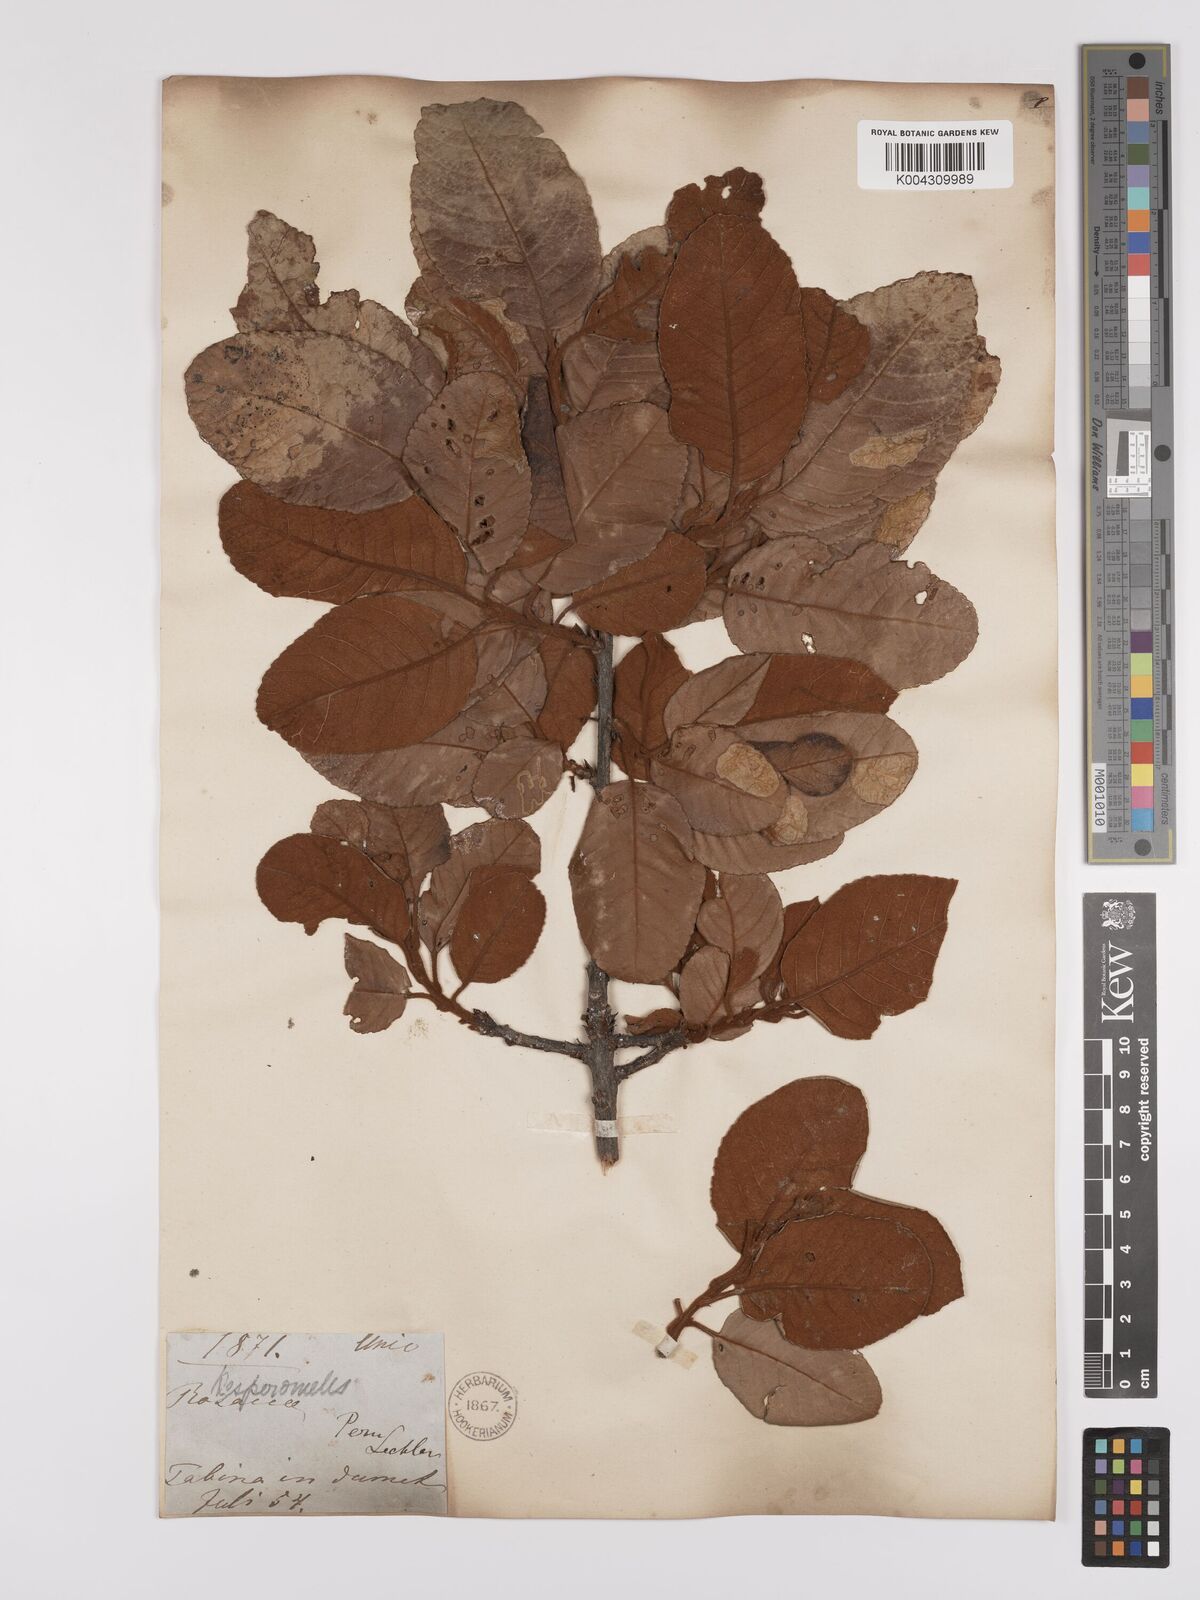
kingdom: Plantae
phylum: Tracheophyta
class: Magnoliopsida
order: Rosales
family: Rosaceae
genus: Hesperomeles
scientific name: Hesperomeles ferruginea
